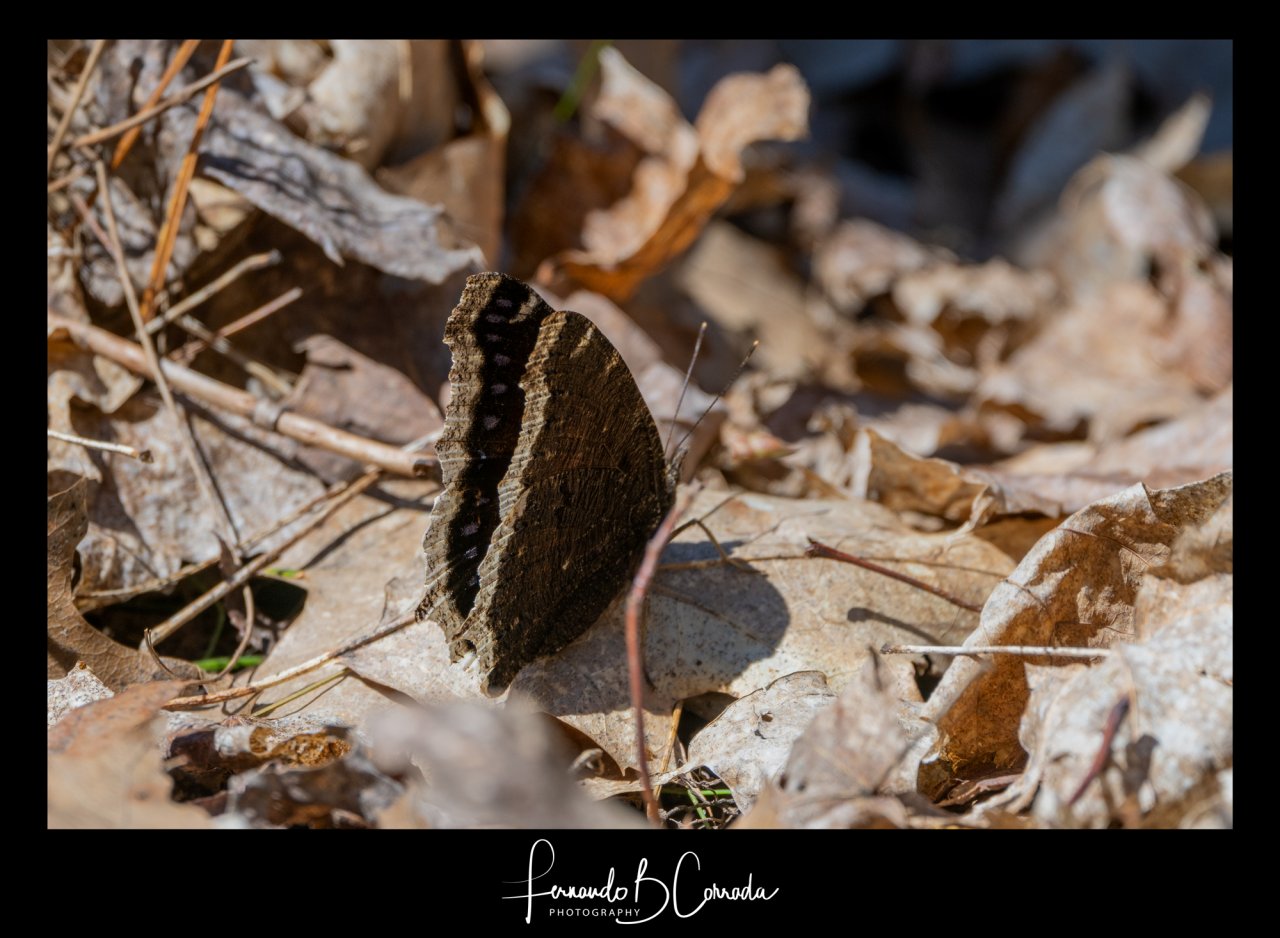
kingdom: Animalia
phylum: Arthropoda
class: Insecta
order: Lepidoptera
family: Nymphalidae
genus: Nymphalis
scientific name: Nymphalis antiopa
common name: Mourning Cloak
